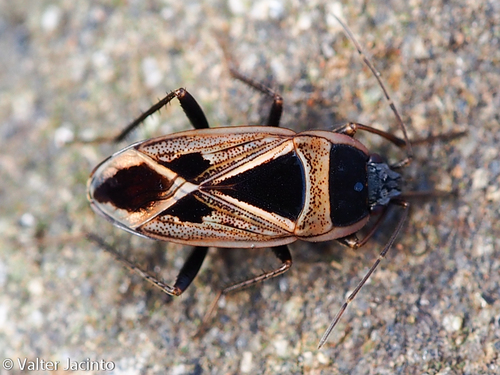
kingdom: Animalia
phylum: Arthropoda
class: Insecta
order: Hemiptera
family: Rhyparochromidae
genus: Xanthochilus
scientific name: Xanthochilus saturnius
